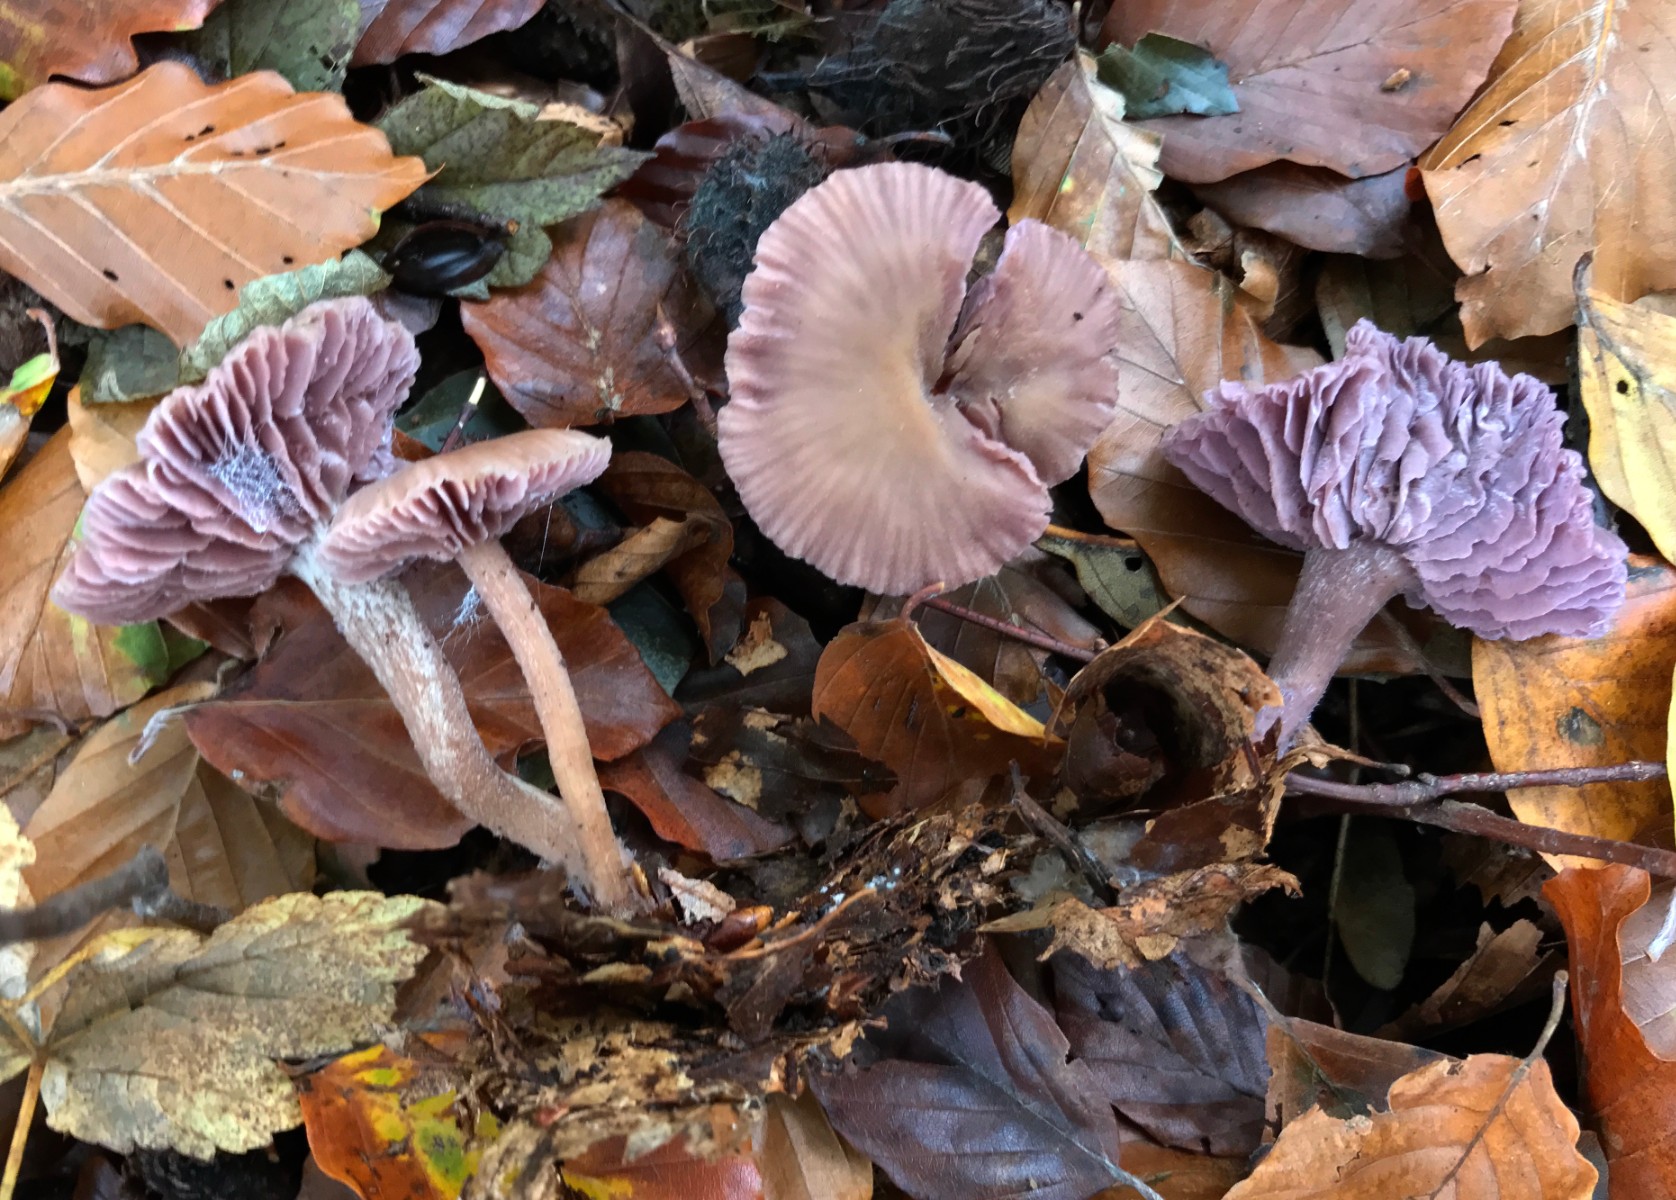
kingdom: Fungi
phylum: Basidiomycota
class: Agaricomycetes
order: Agaricales
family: Hydnangiaceae
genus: Laccaria
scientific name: Laccaria amethystina
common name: violet ametysthat
